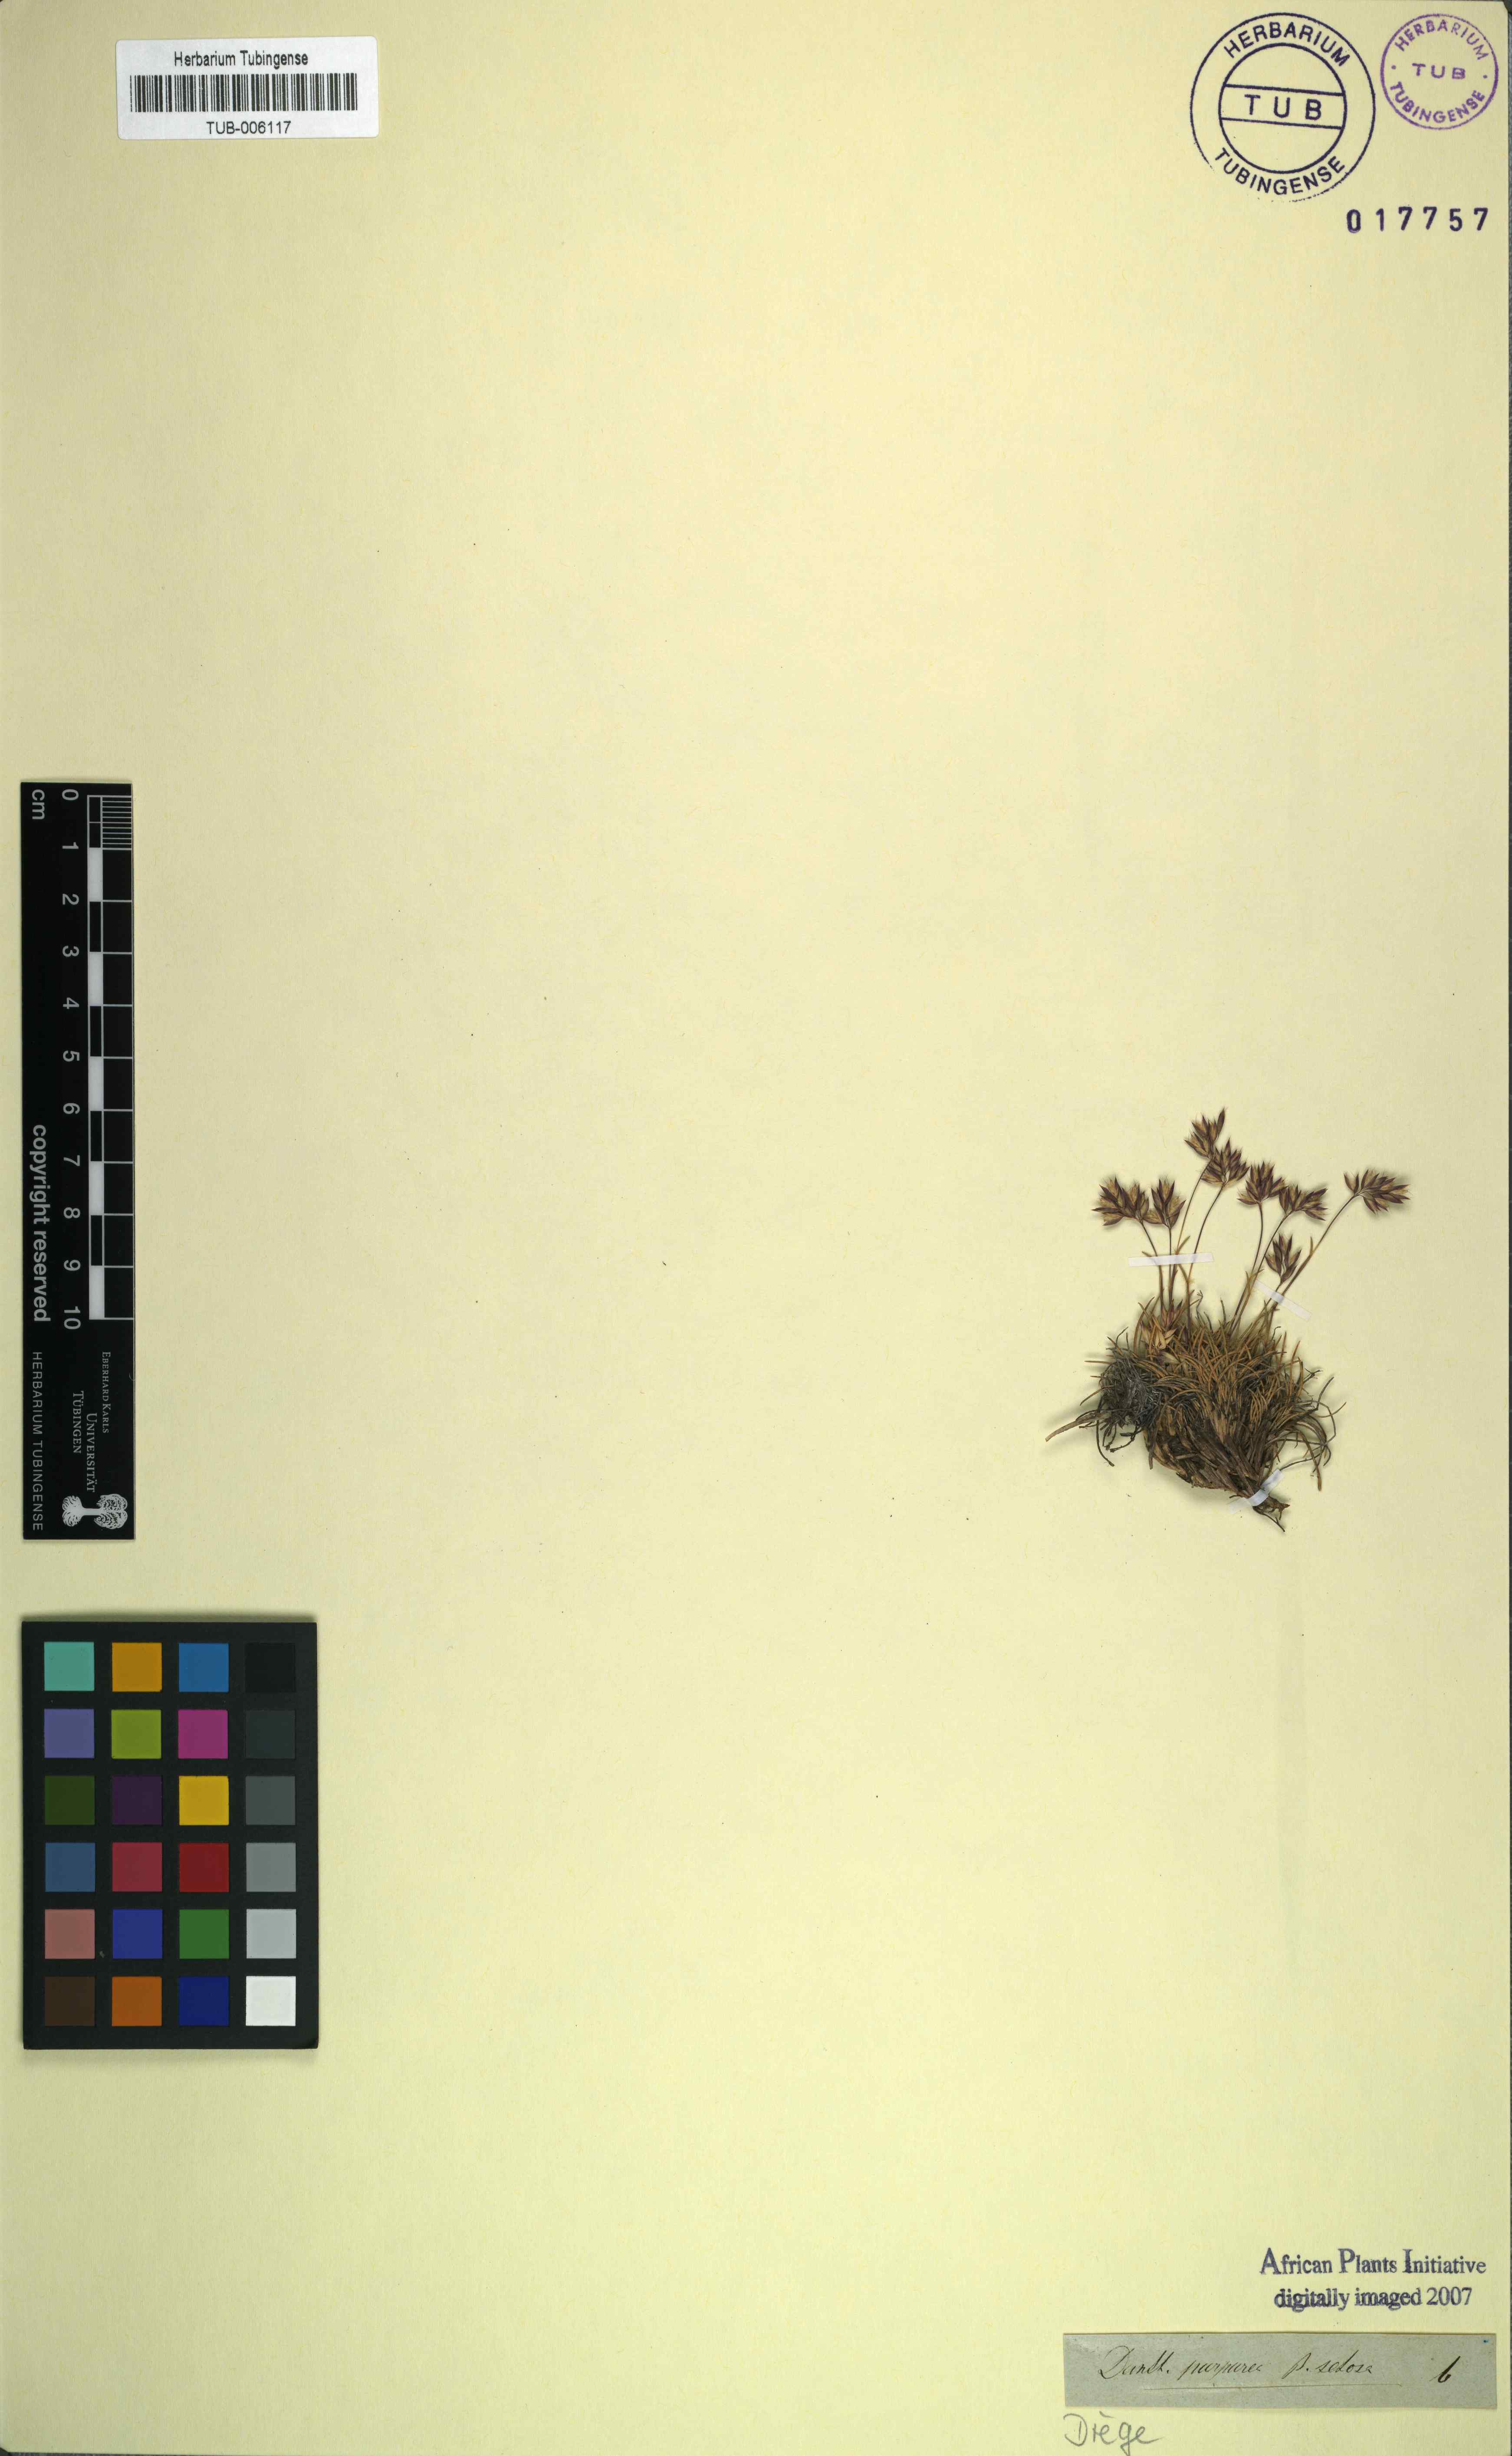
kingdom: Plantae
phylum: Tracheophyta
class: Liliopsida
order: Poales
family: Poaceae
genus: Tribolium
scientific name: Tribolium purpureum
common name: Grass
